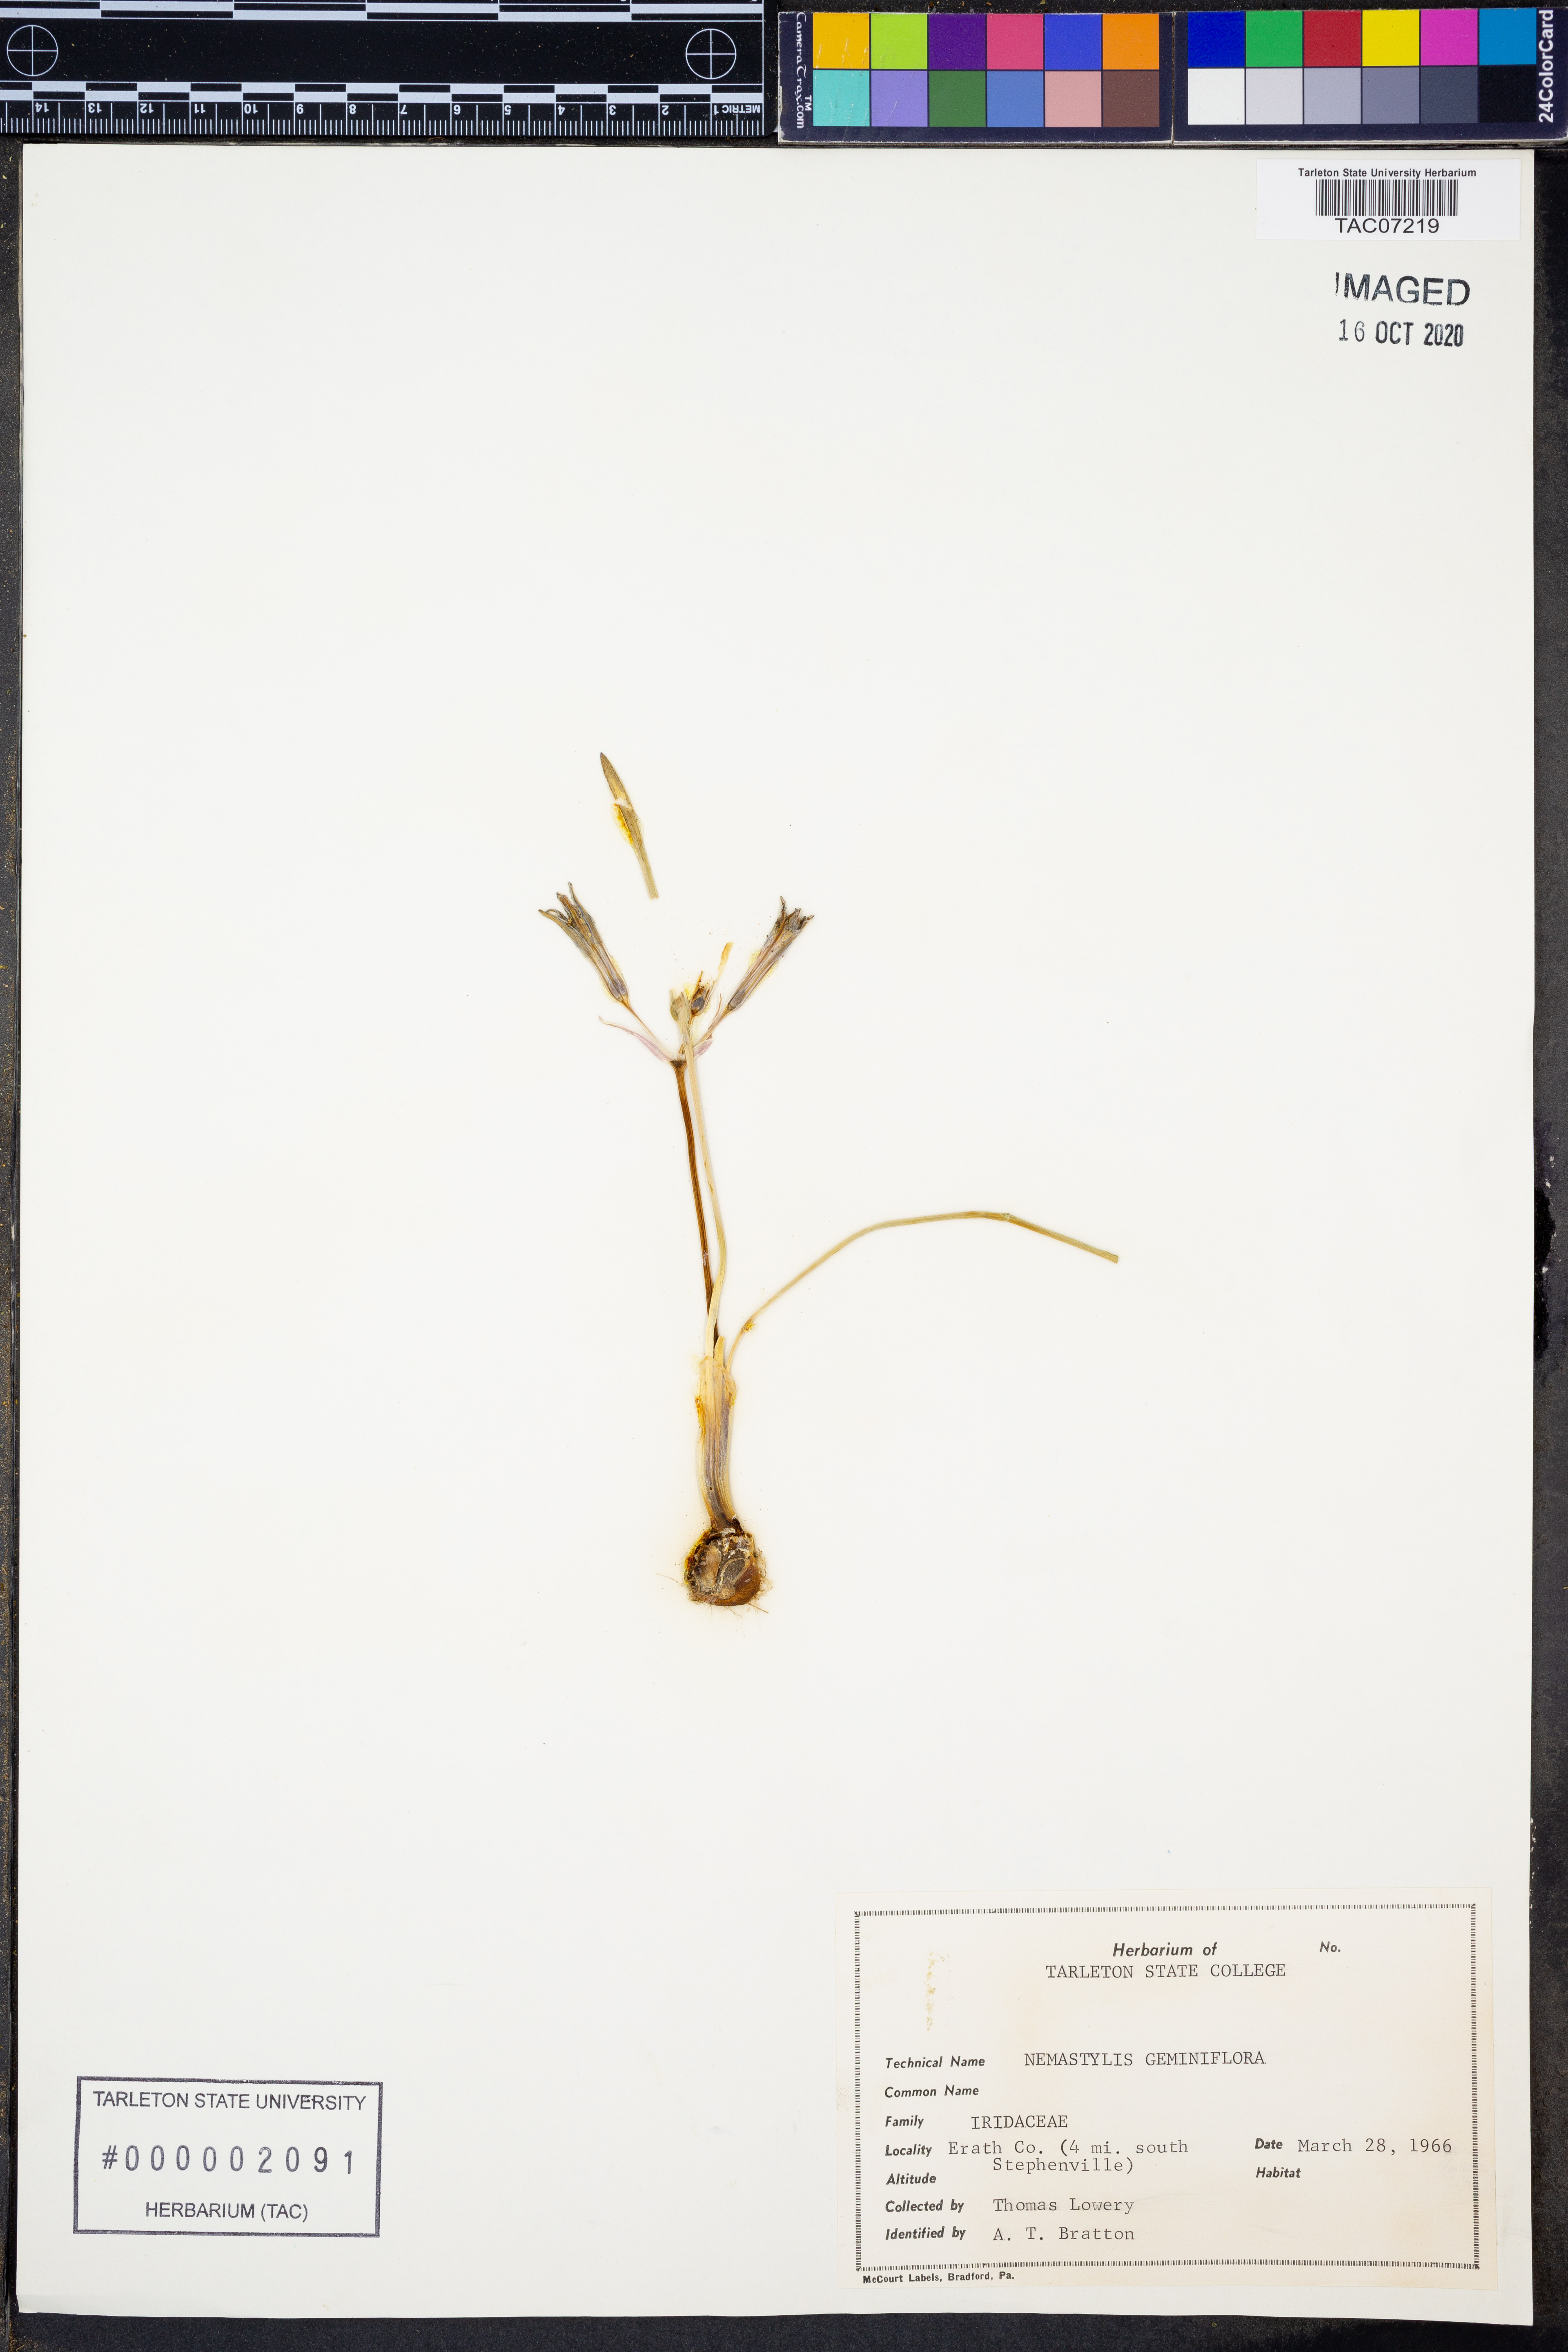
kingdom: Plantae
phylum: Tracheophyta
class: Liliopsida
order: Asparagales
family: Iridaceae
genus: Nemastylis
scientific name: Nemastylis geminiflora
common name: Prairie celestial
